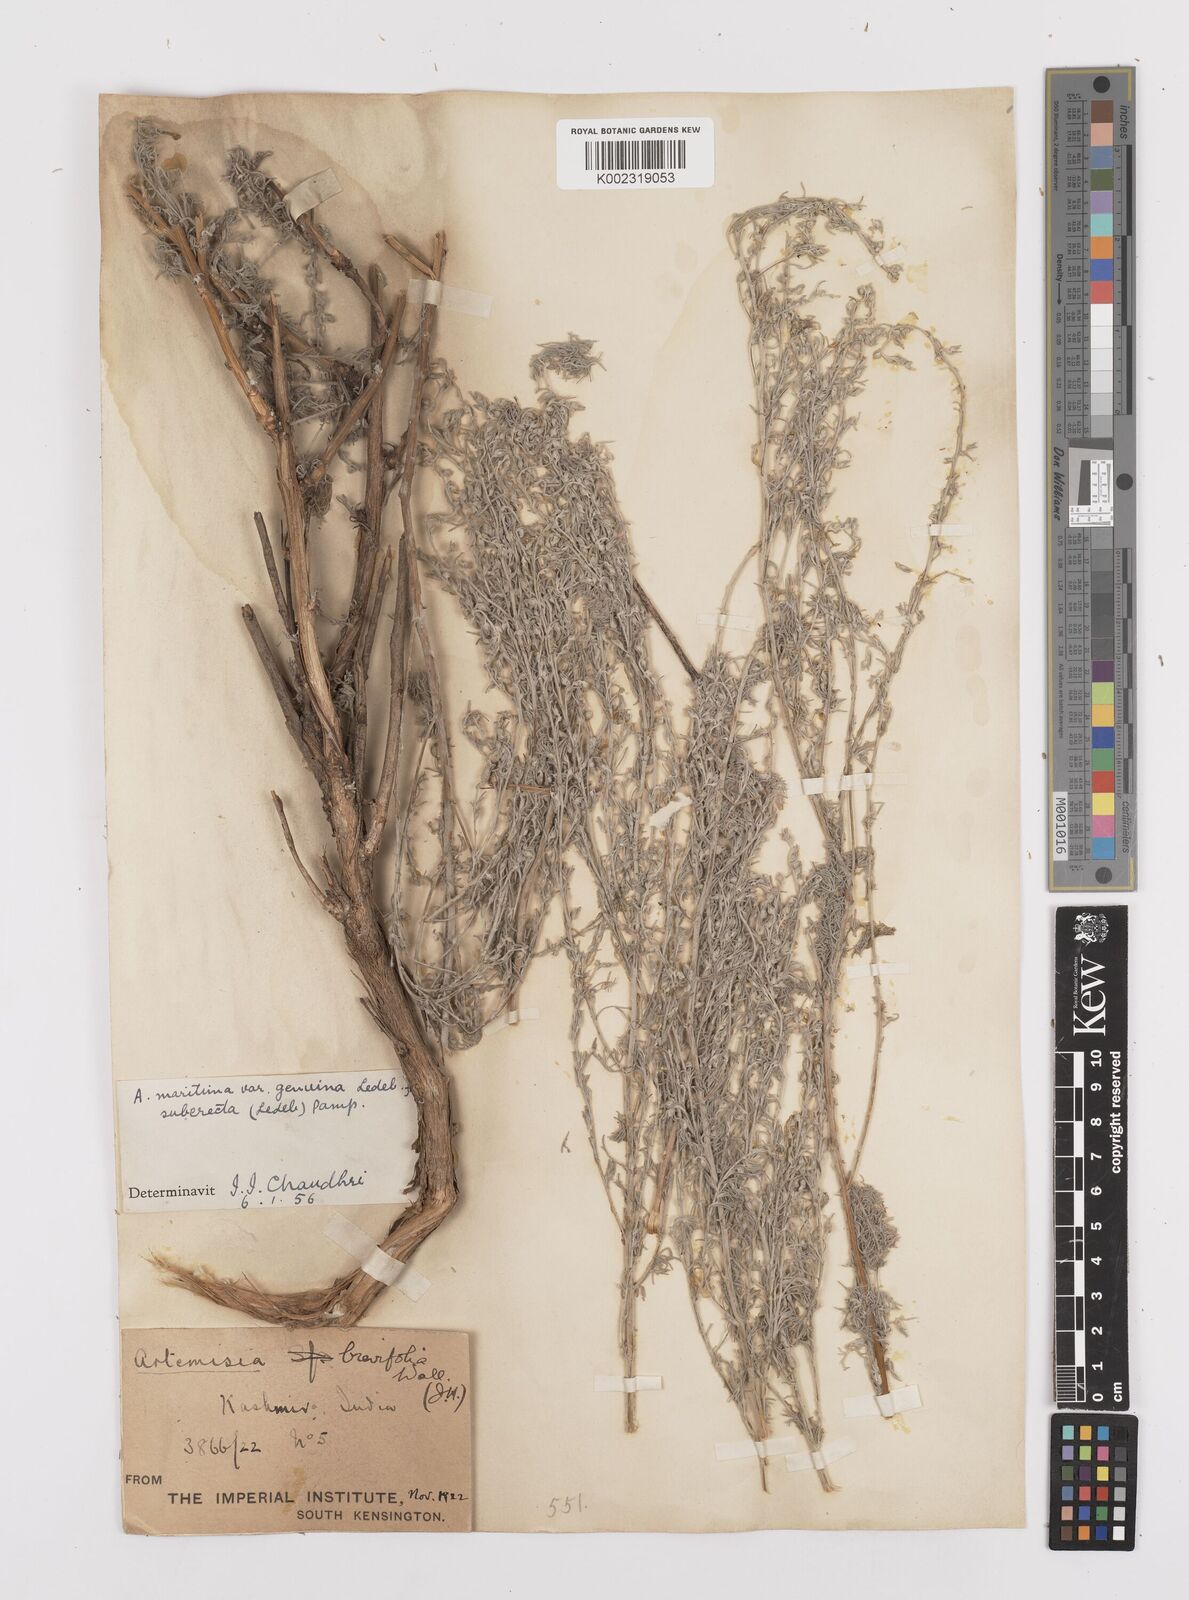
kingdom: Plantae
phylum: Tracheophyta
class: Magnoliopsida
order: Asterales
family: Asteraceae
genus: Artemisia
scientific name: Artemisia brevifolia
